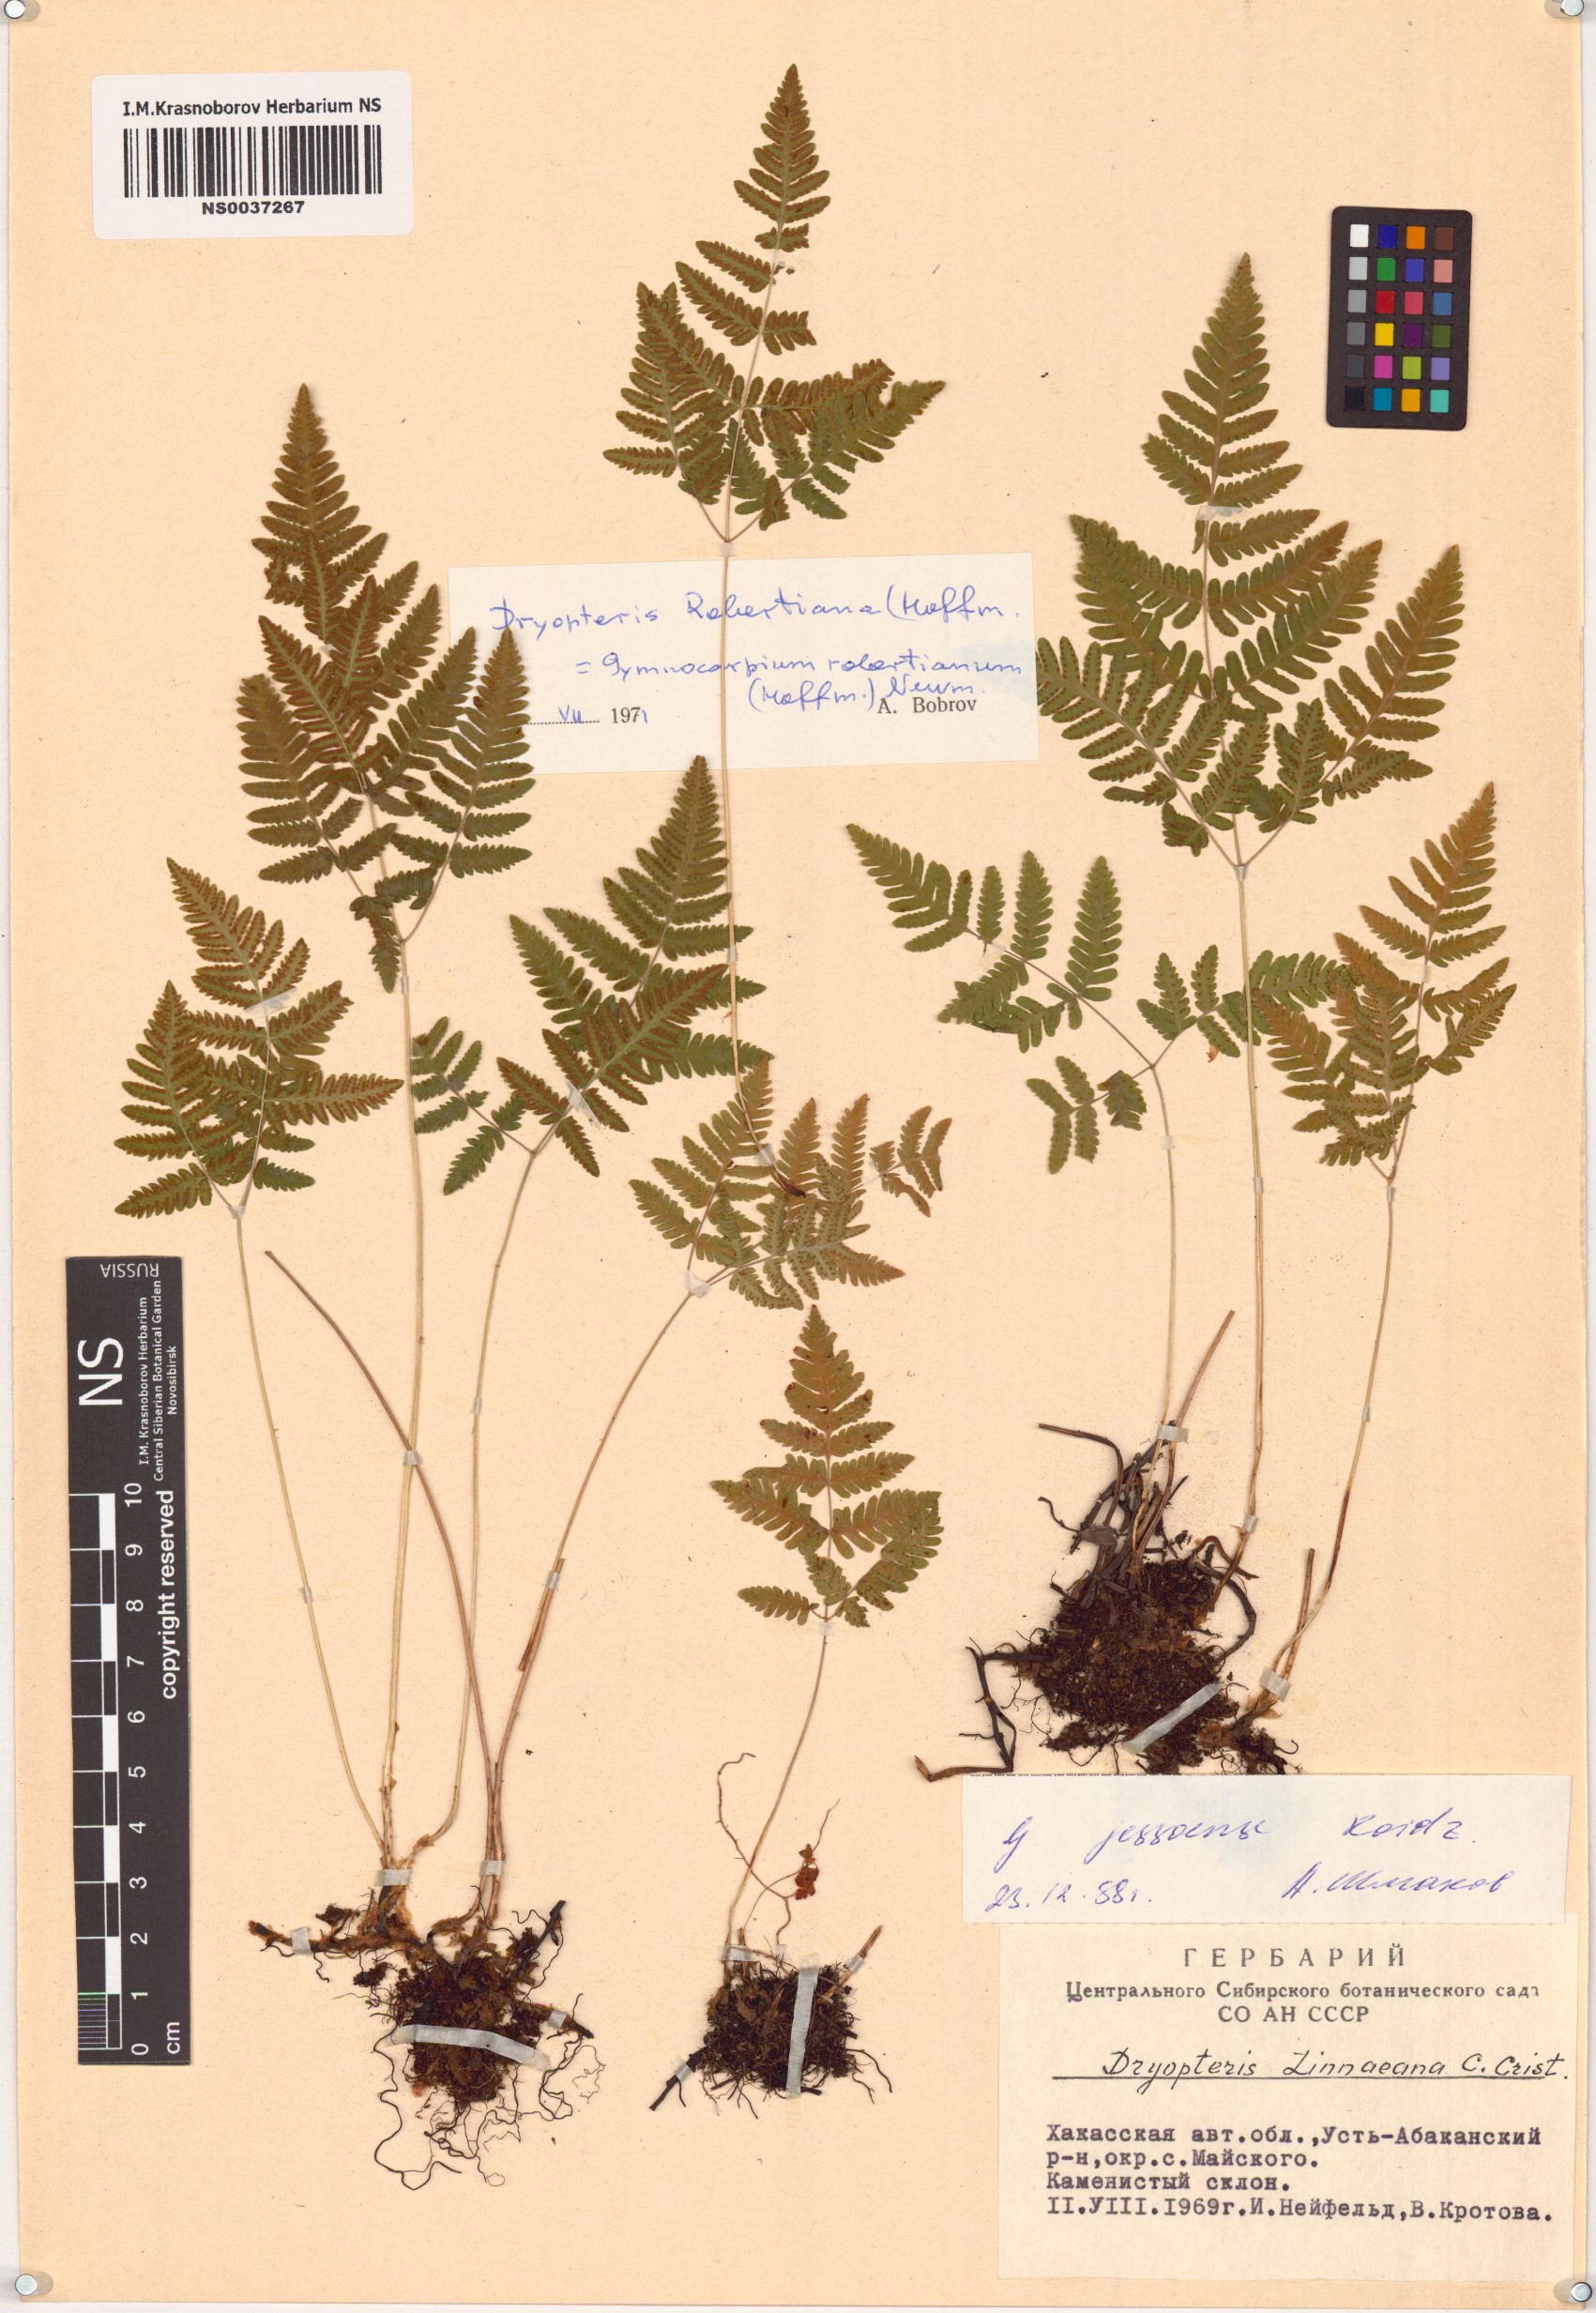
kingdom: Plantae
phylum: Tracheophyta
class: Polypodiopsida
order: Polypodiales
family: Cystopteridaceae
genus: Gymnocarpium
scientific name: Gymnocarpium jessoense
